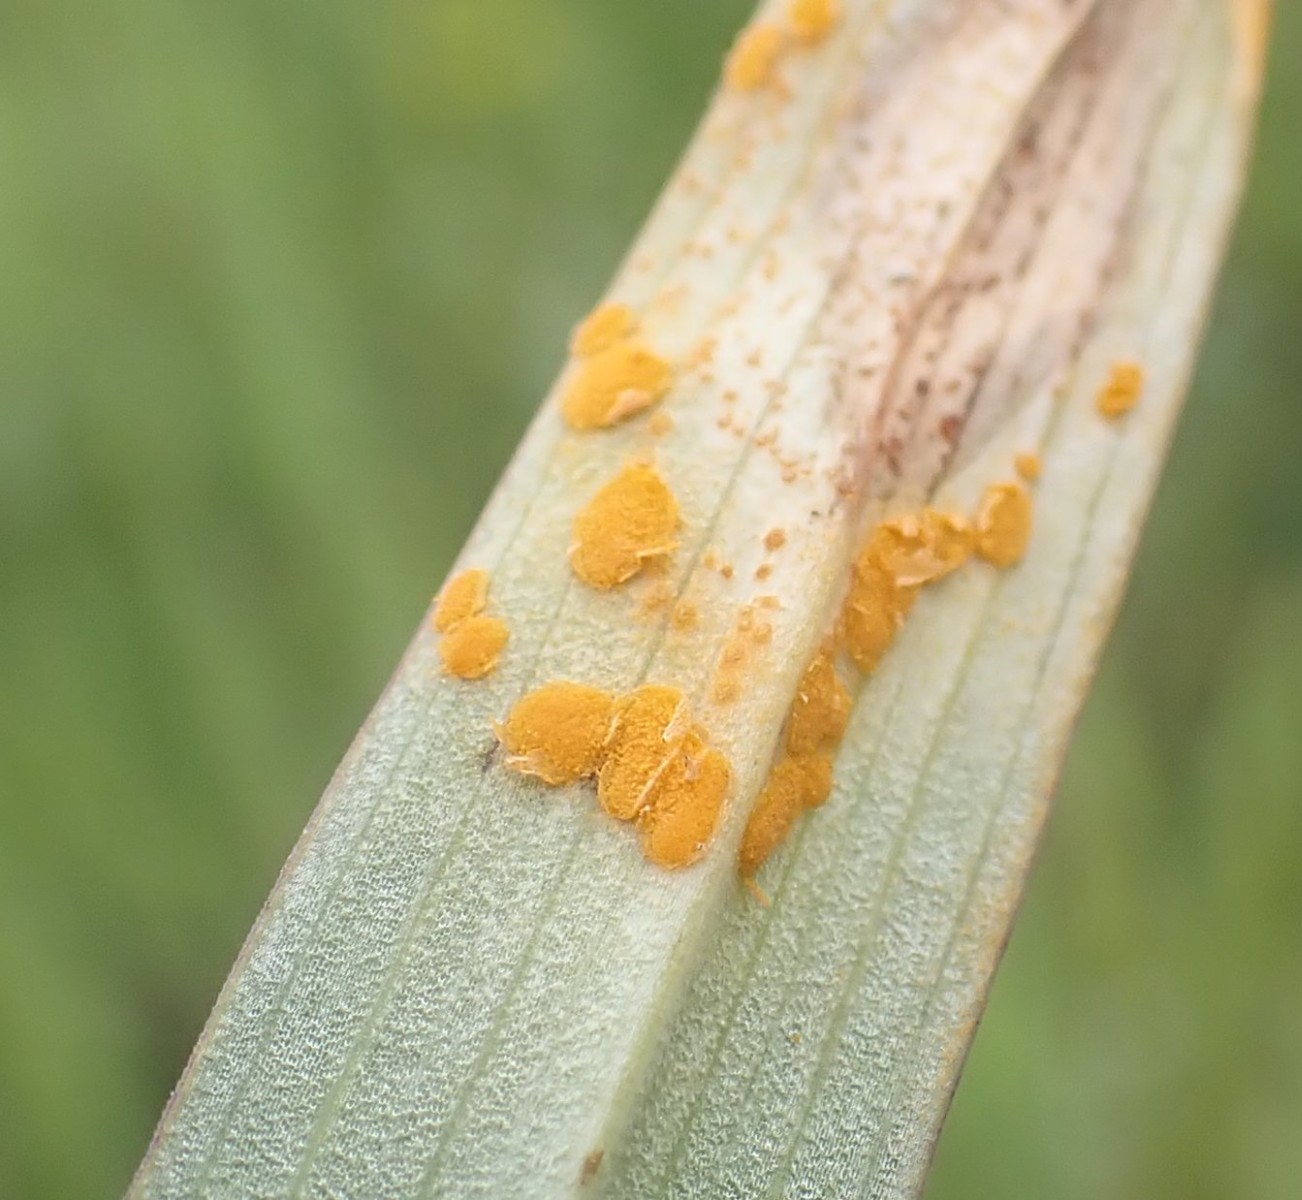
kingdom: Fungi
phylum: Basidiomycota
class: Pucciniomycetes
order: Pucciniales
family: Melampsoraceae
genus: Melampsora
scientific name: Melampsora epitea
